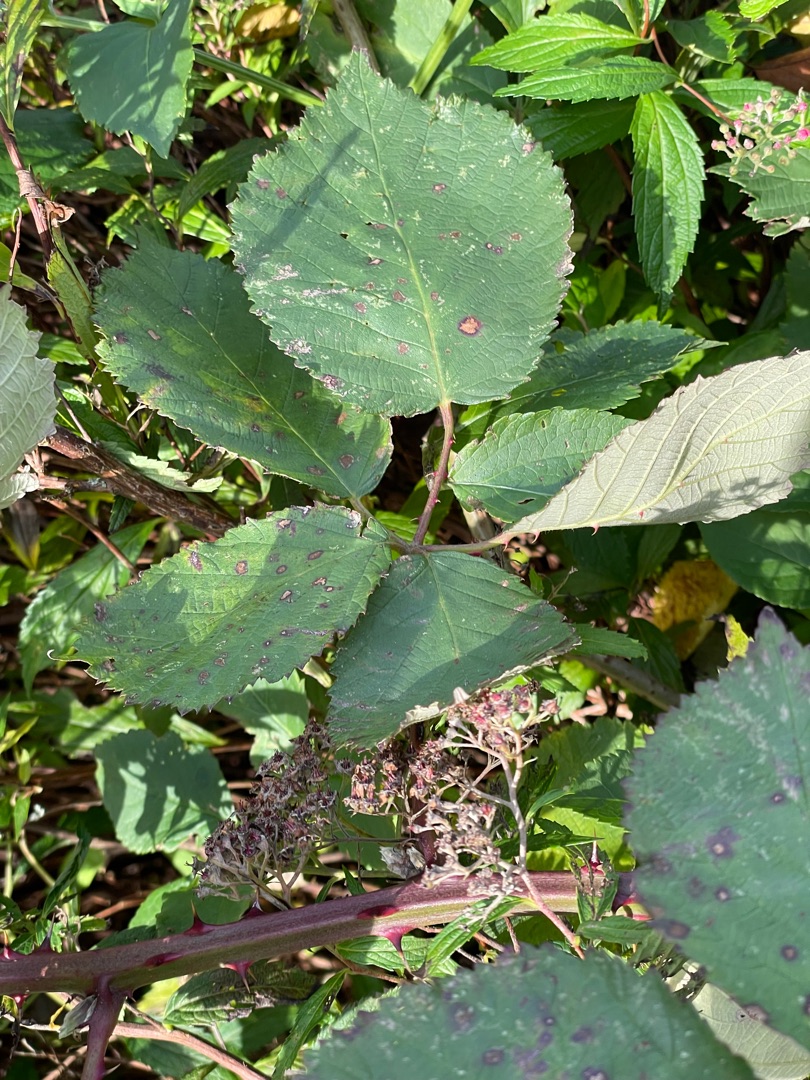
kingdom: Plantae
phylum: Tracheophyta
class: Magnoliopsida
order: Rosales
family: Rosaceae
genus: Rubus
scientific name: Rubus armeniacus
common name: Armensk brombær
